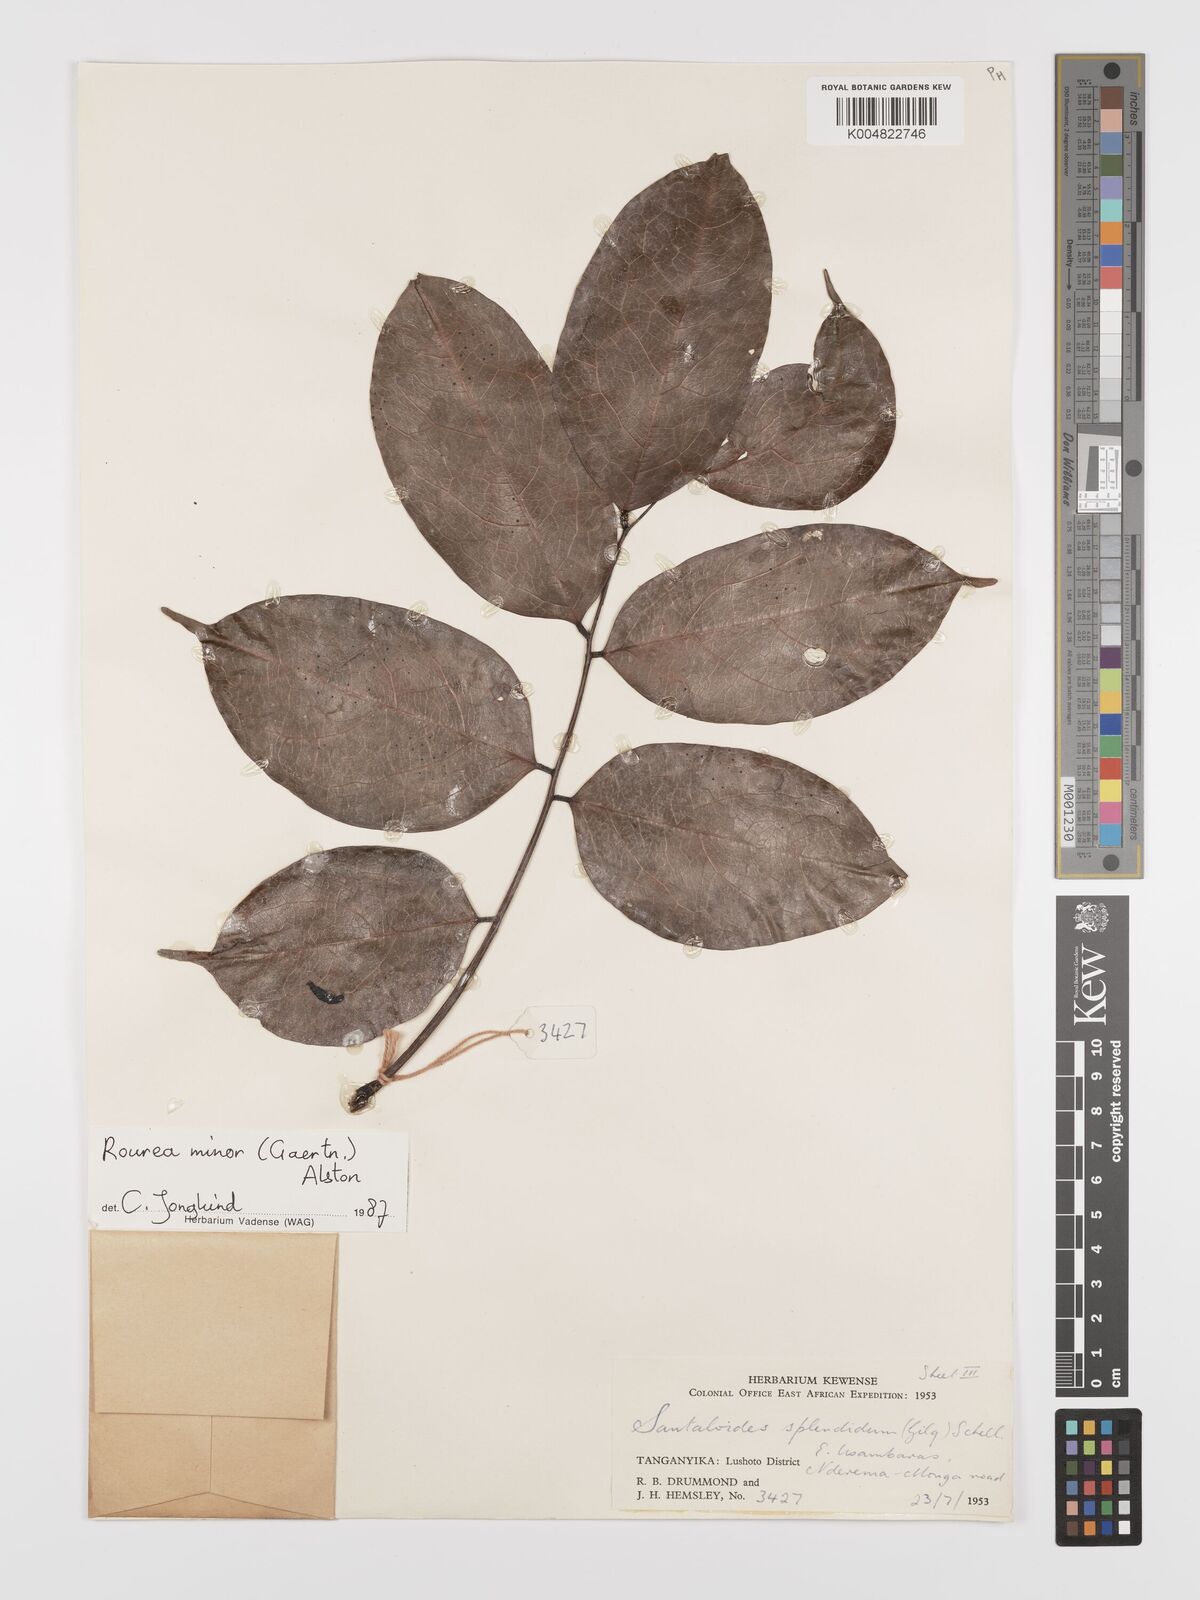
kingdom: Plantae
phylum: Tracheophyta
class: Magnoliopsida
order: Oxalidales
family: Connaraceae
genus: Rourea
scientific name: Rourea minor
